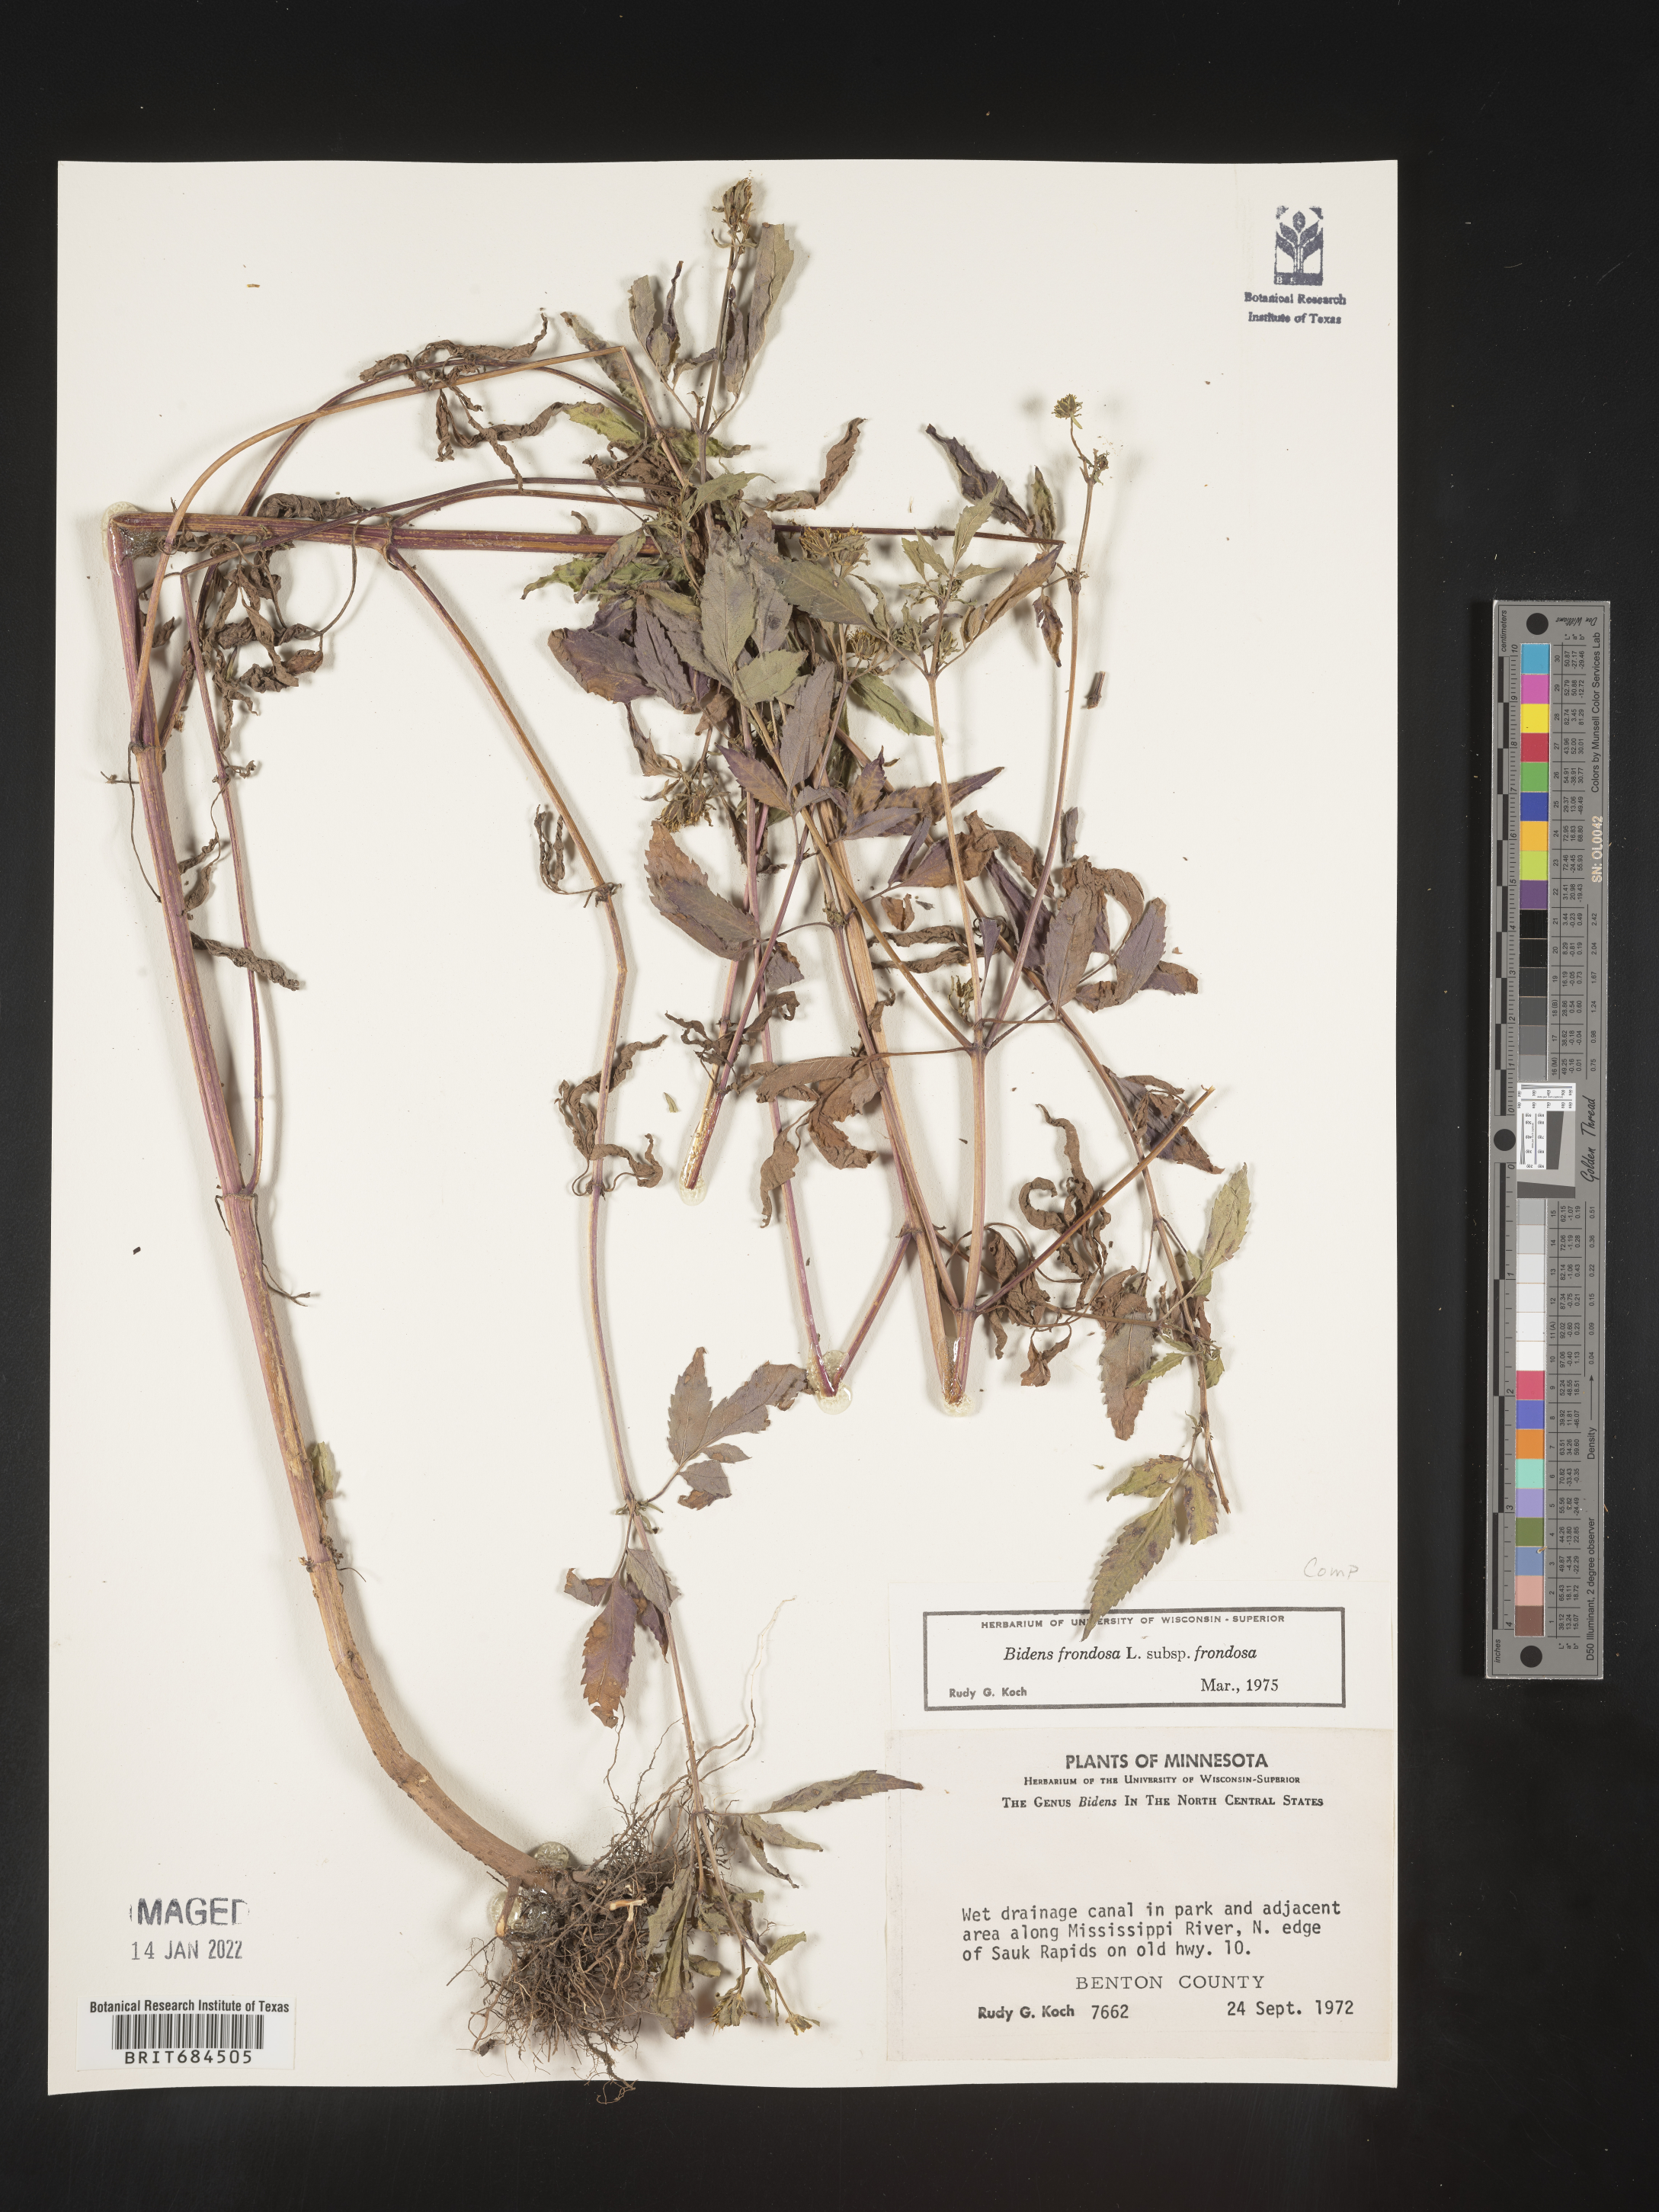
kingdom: Plantae
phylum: Tracheophyta
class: Magnoliopsida
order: Asterales
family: Asteraceae
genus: Bidens
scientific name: Bidens frondosa
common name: Beggarticks
